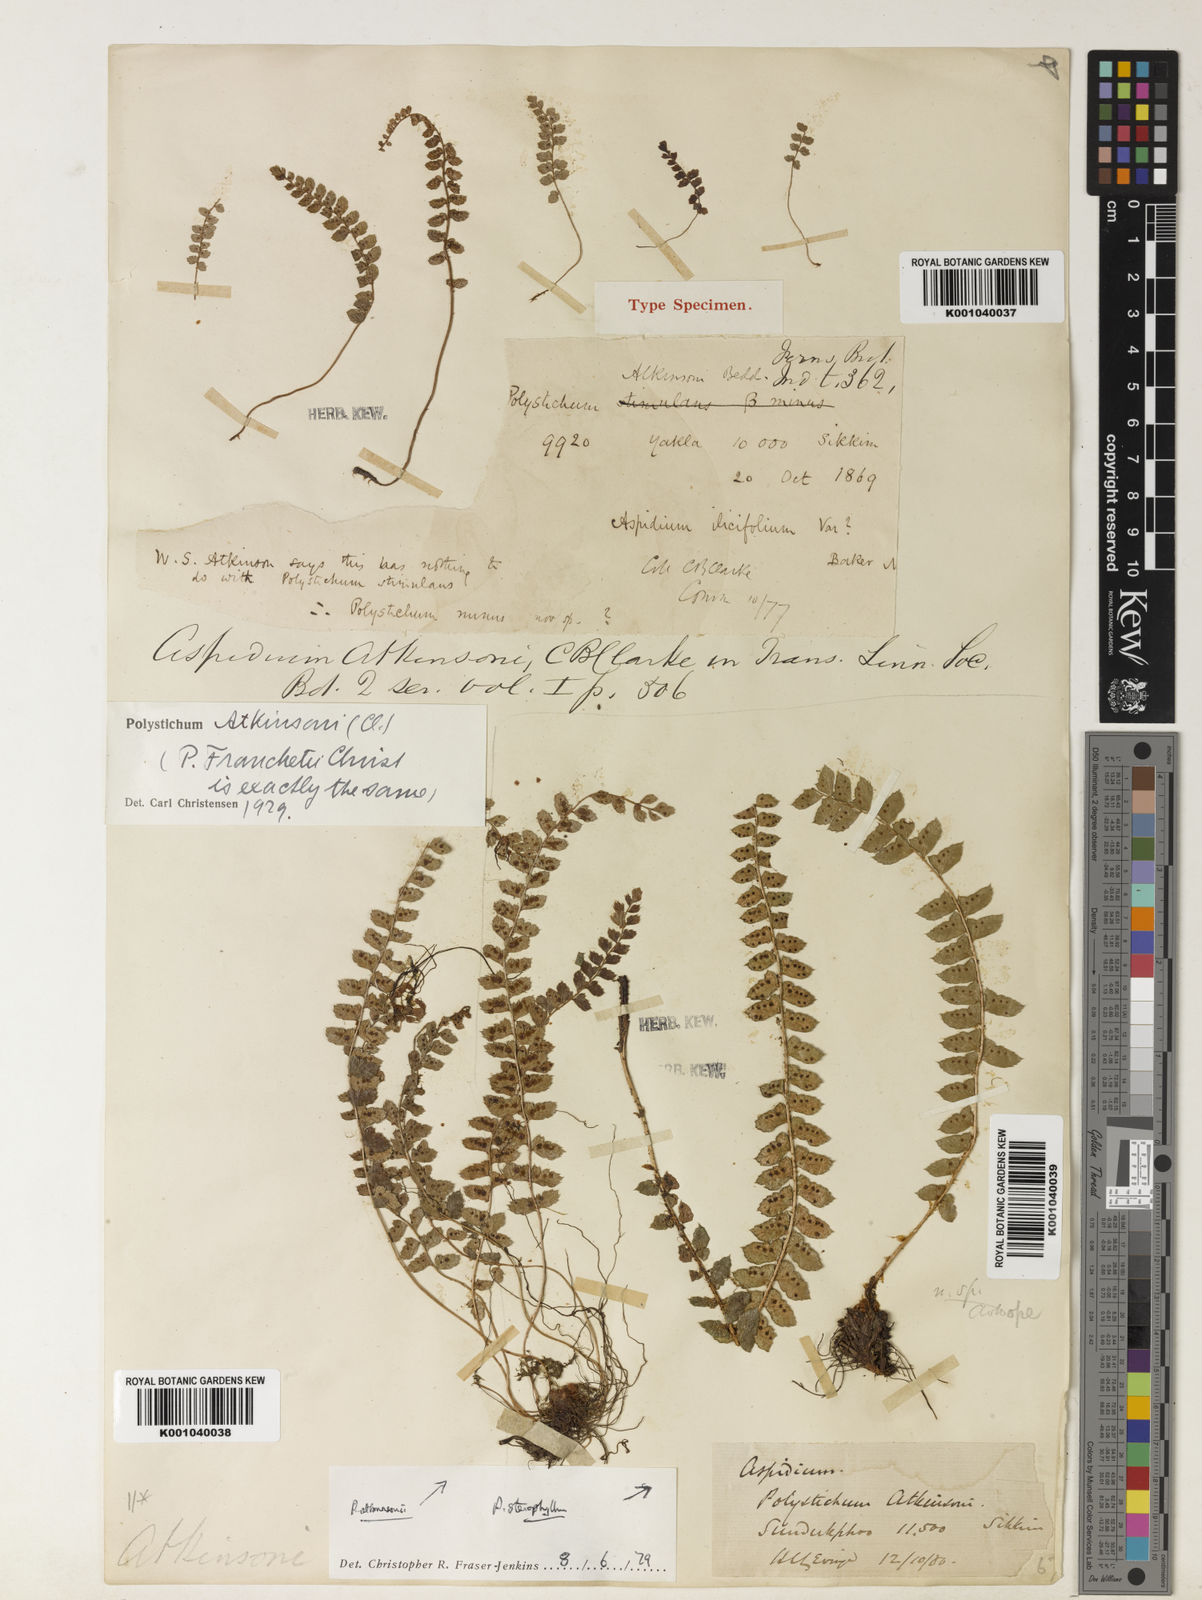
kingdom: Plantae
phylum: Tracheophyta
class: Polypodiopsida
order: Polypodiales
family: Dryopteridaceae
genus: Polystichum
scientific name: Polystichum atkinsonii
